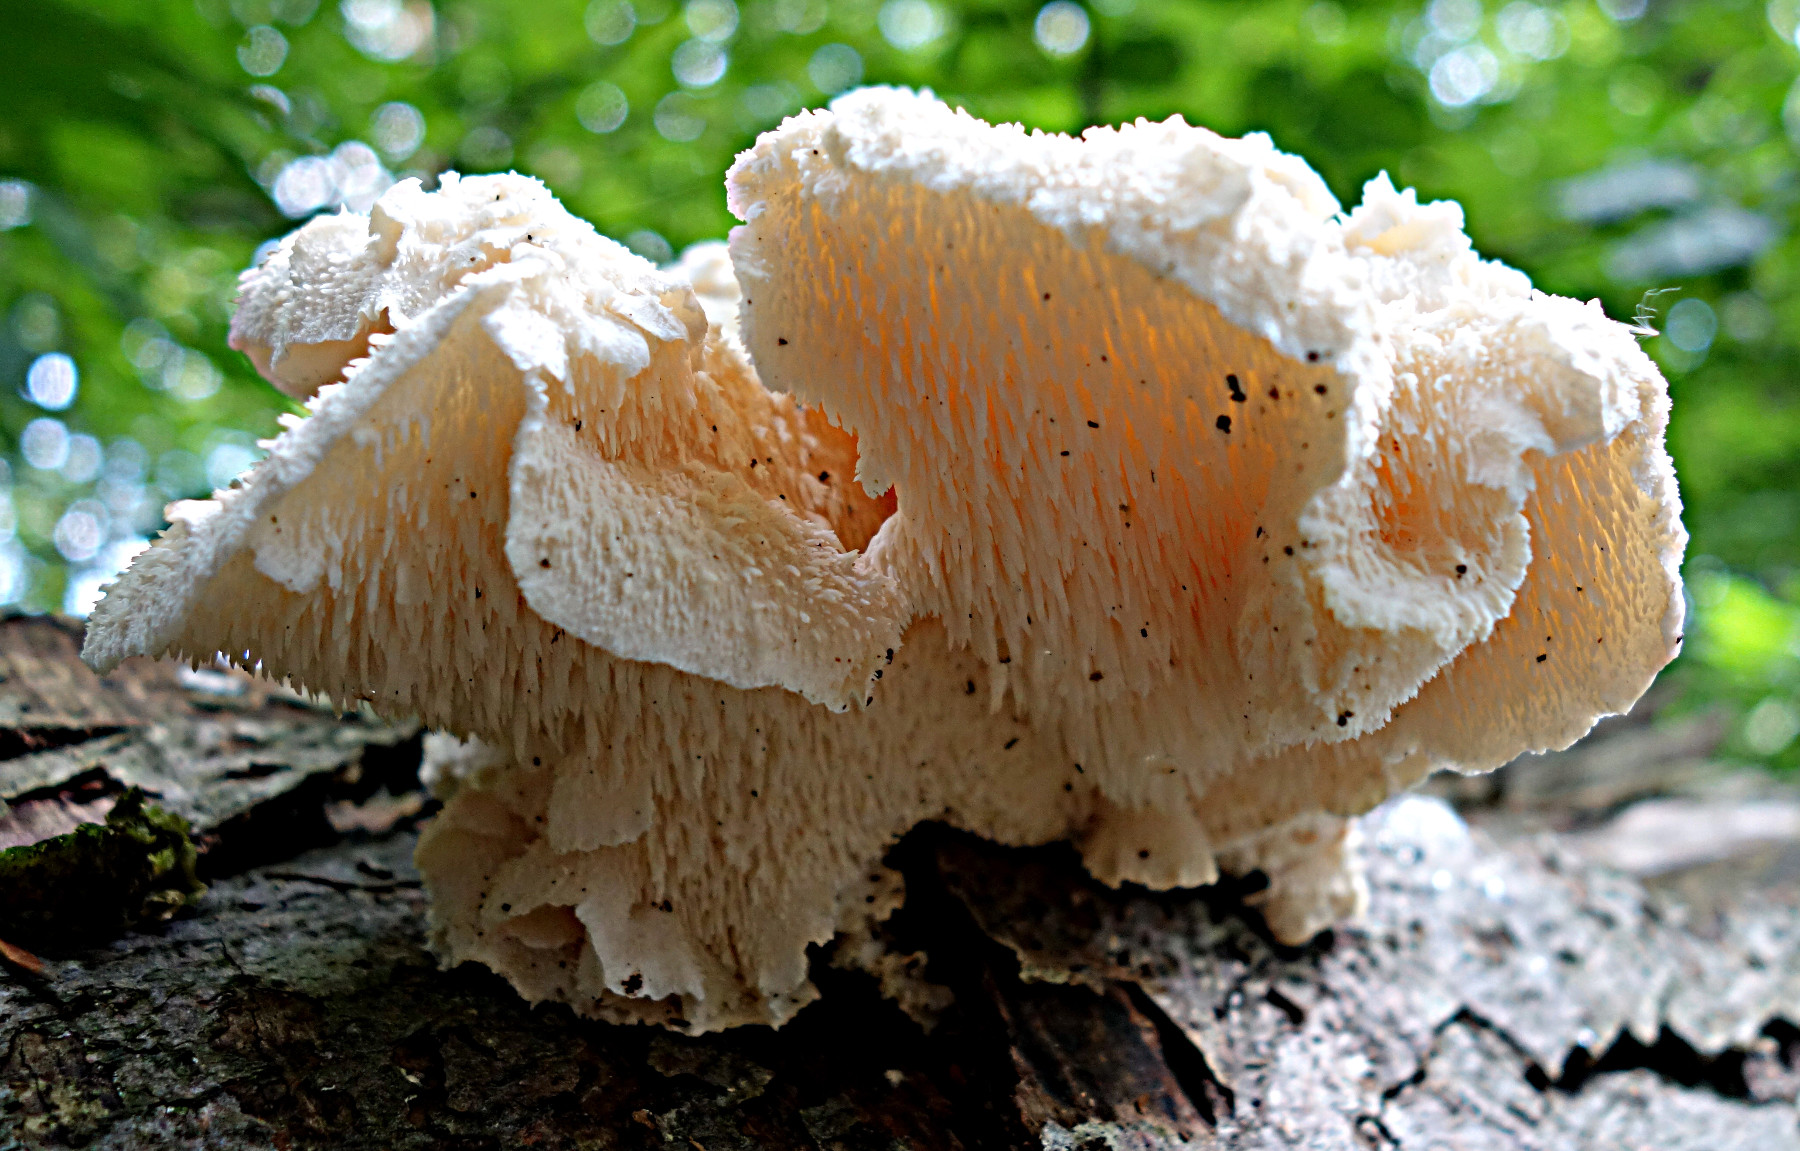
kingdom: Fungi
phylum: Basidiomycota
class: Agaricomycetes
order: Russulales
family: Hericiaceae
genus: Hericium
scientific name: Hericium cirrhatum
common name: børstepigsvamp
